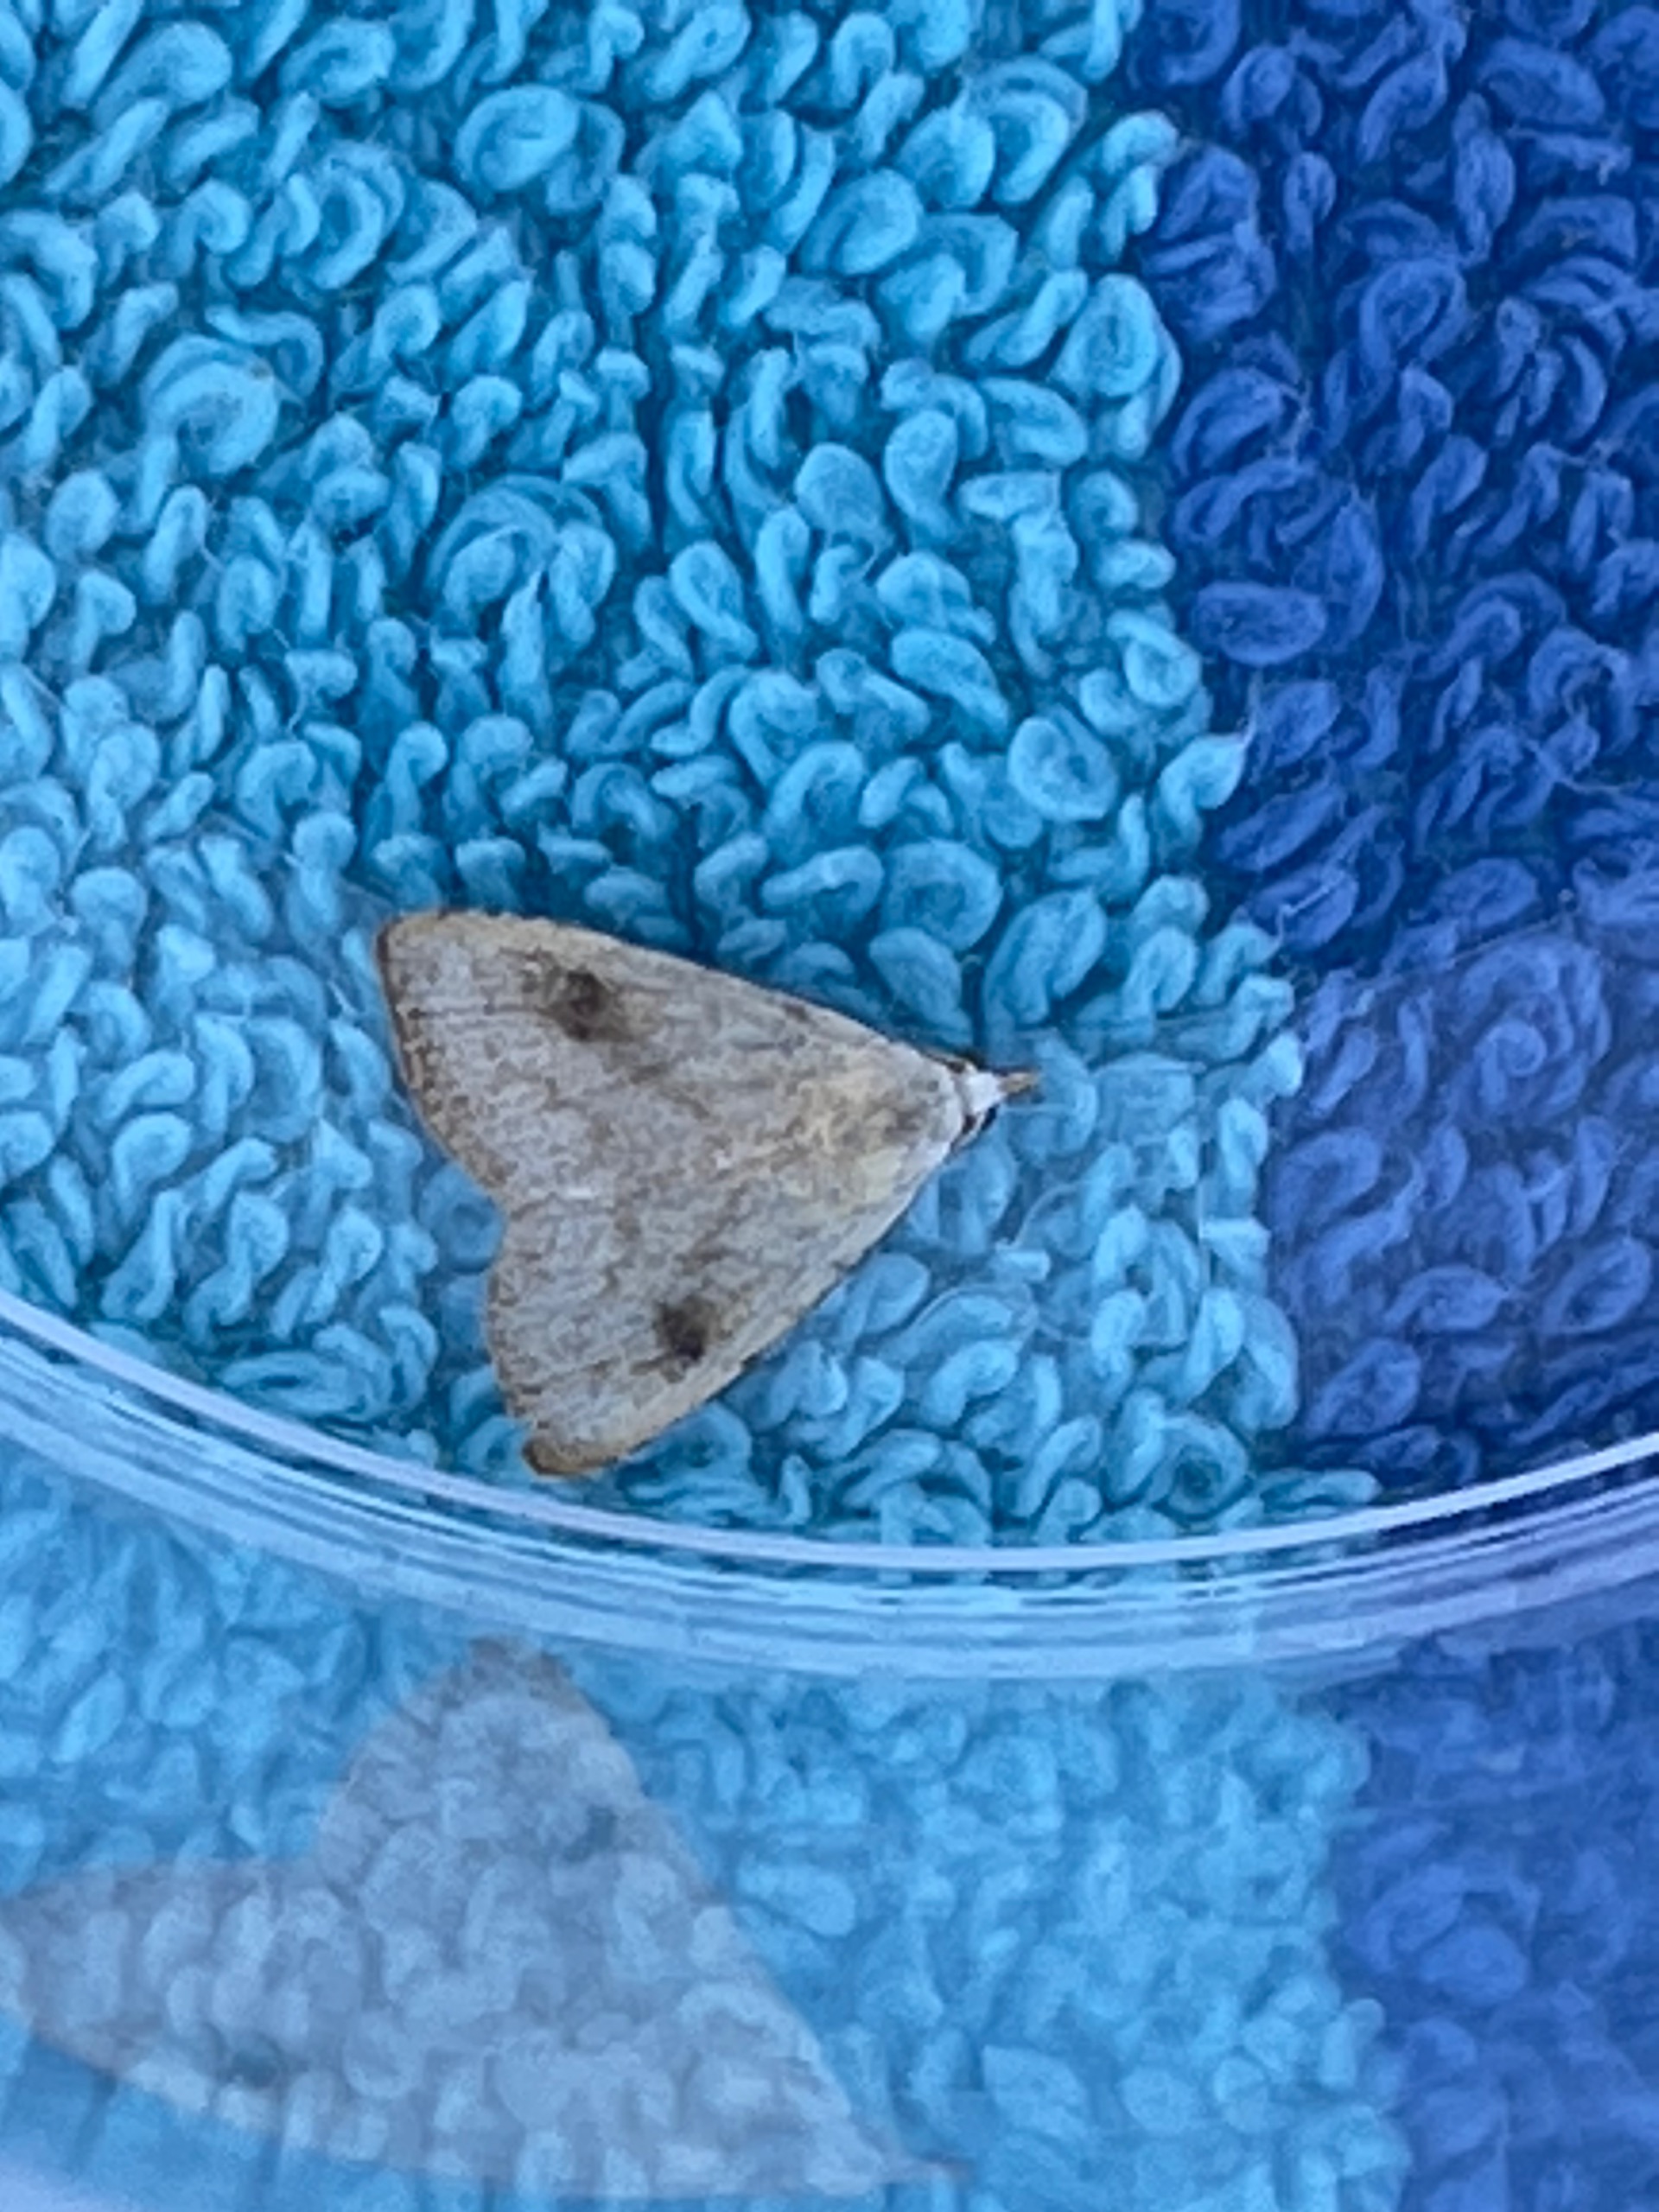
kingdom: Animalia
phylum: Arthropoda
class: Insecta
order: Lepidoptera
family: Erebidae
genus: Rivula
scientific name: Rivula sericealis
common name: Lille å-ugle
